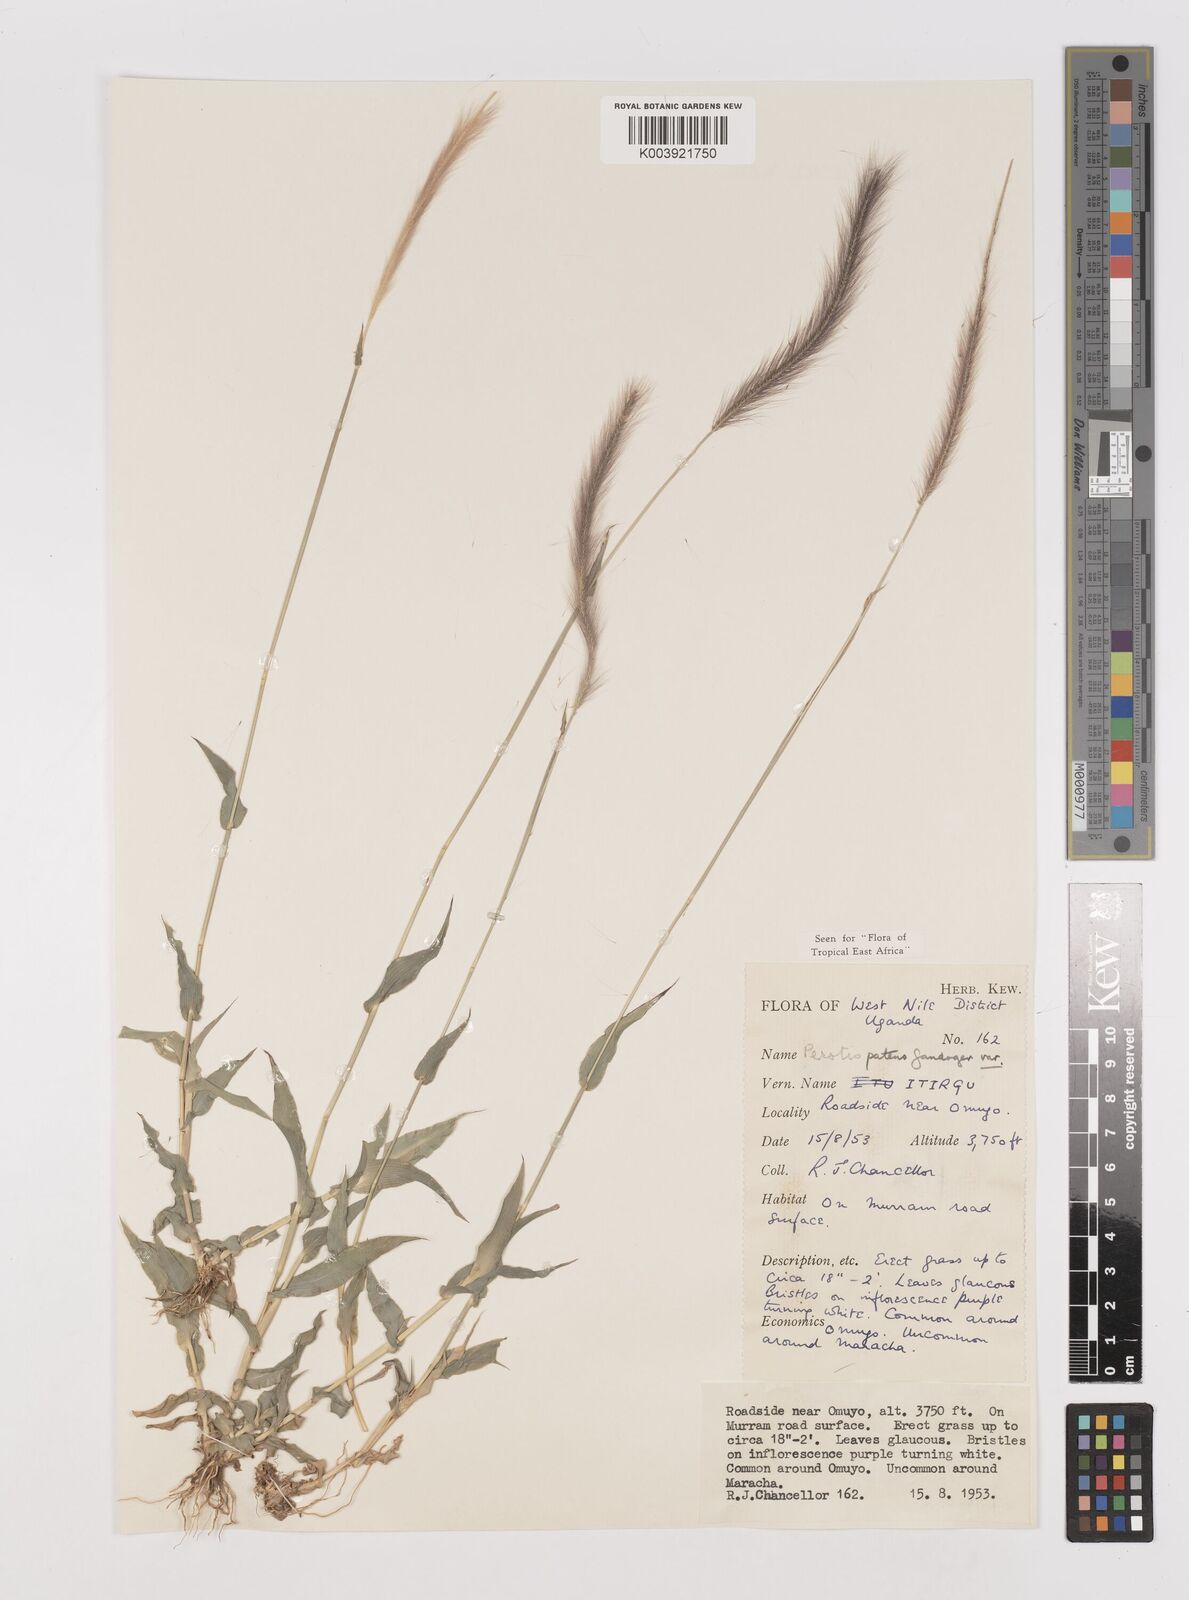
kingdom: Plantae
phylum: Tracheophyta
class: Liliopsida
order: Poales
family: Poaceae
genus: Perotis
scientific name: Perotis patens
